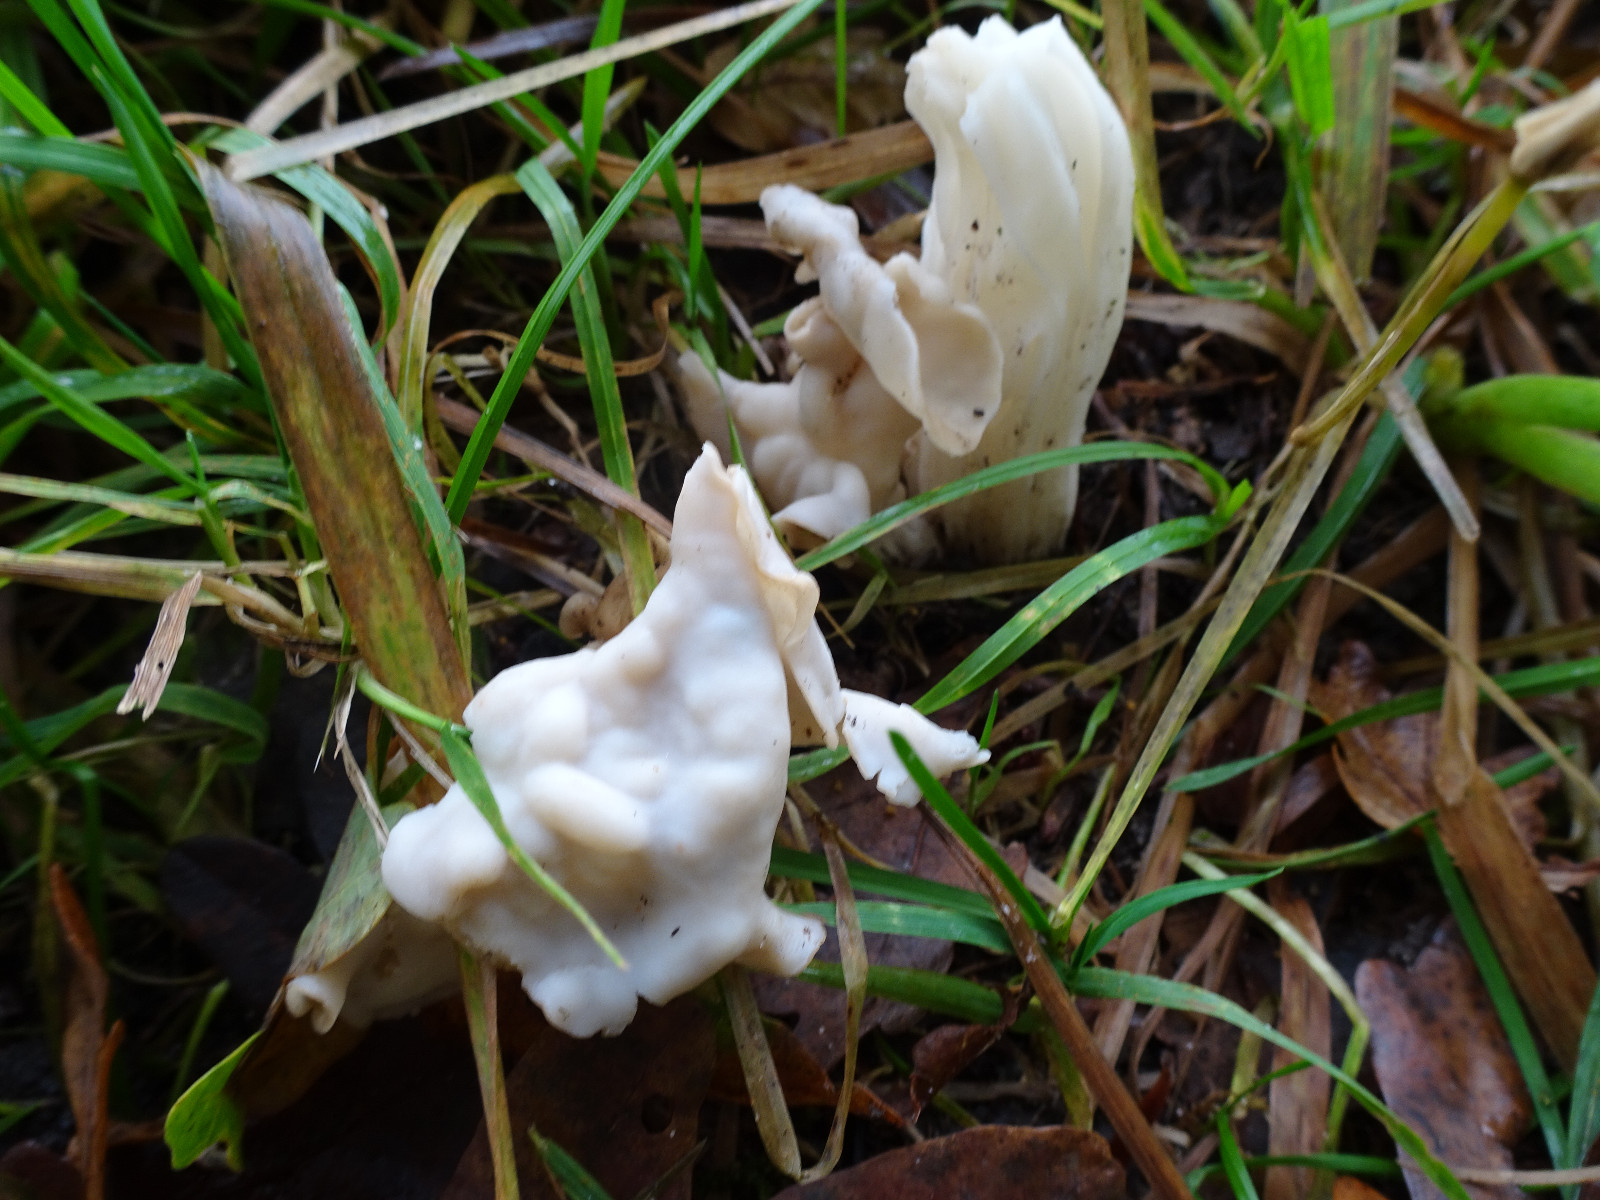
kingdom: Fungi
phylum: Ascomycota
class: Pezizomycetes
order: Pezizales
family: Helvellaceae
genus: Helvella
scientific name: Helvella crispa
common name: kruset foldhat
